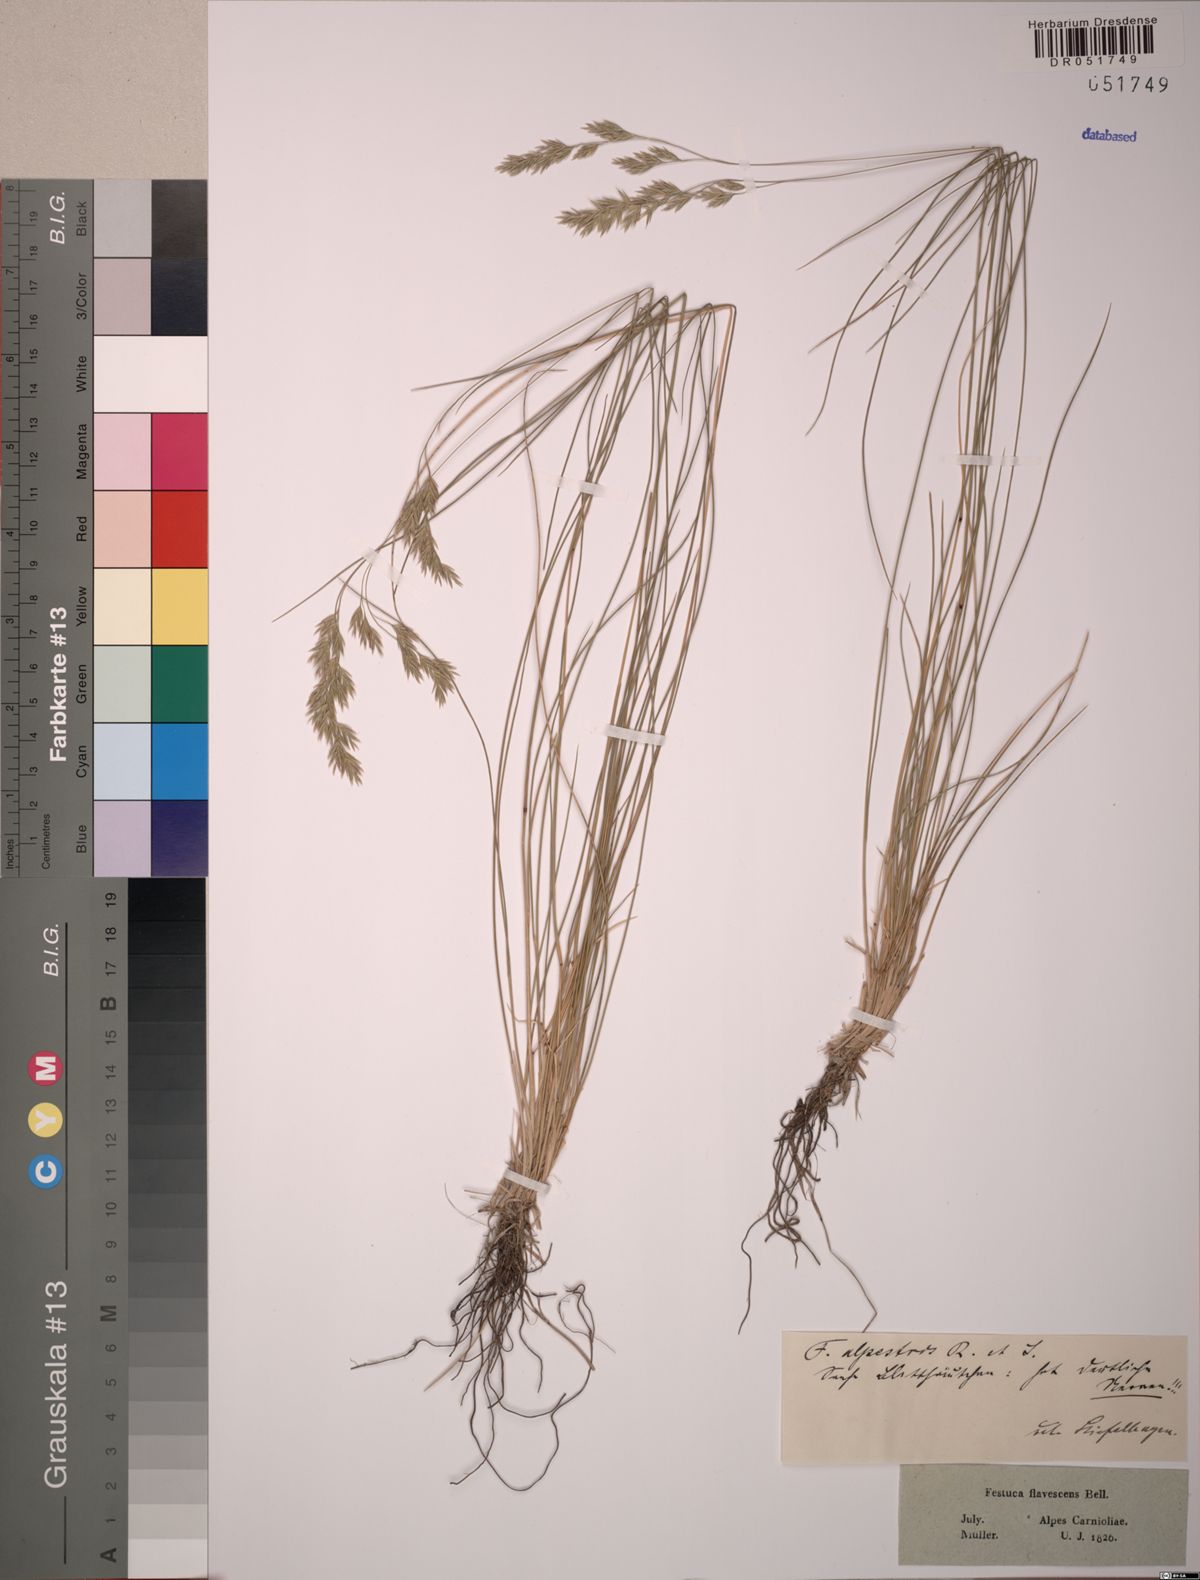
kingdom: Plantae
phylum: Tracheophyta
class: Liliopsida
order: Poales
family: Poaceae
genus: Festuca
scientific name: Festuca alpestris
